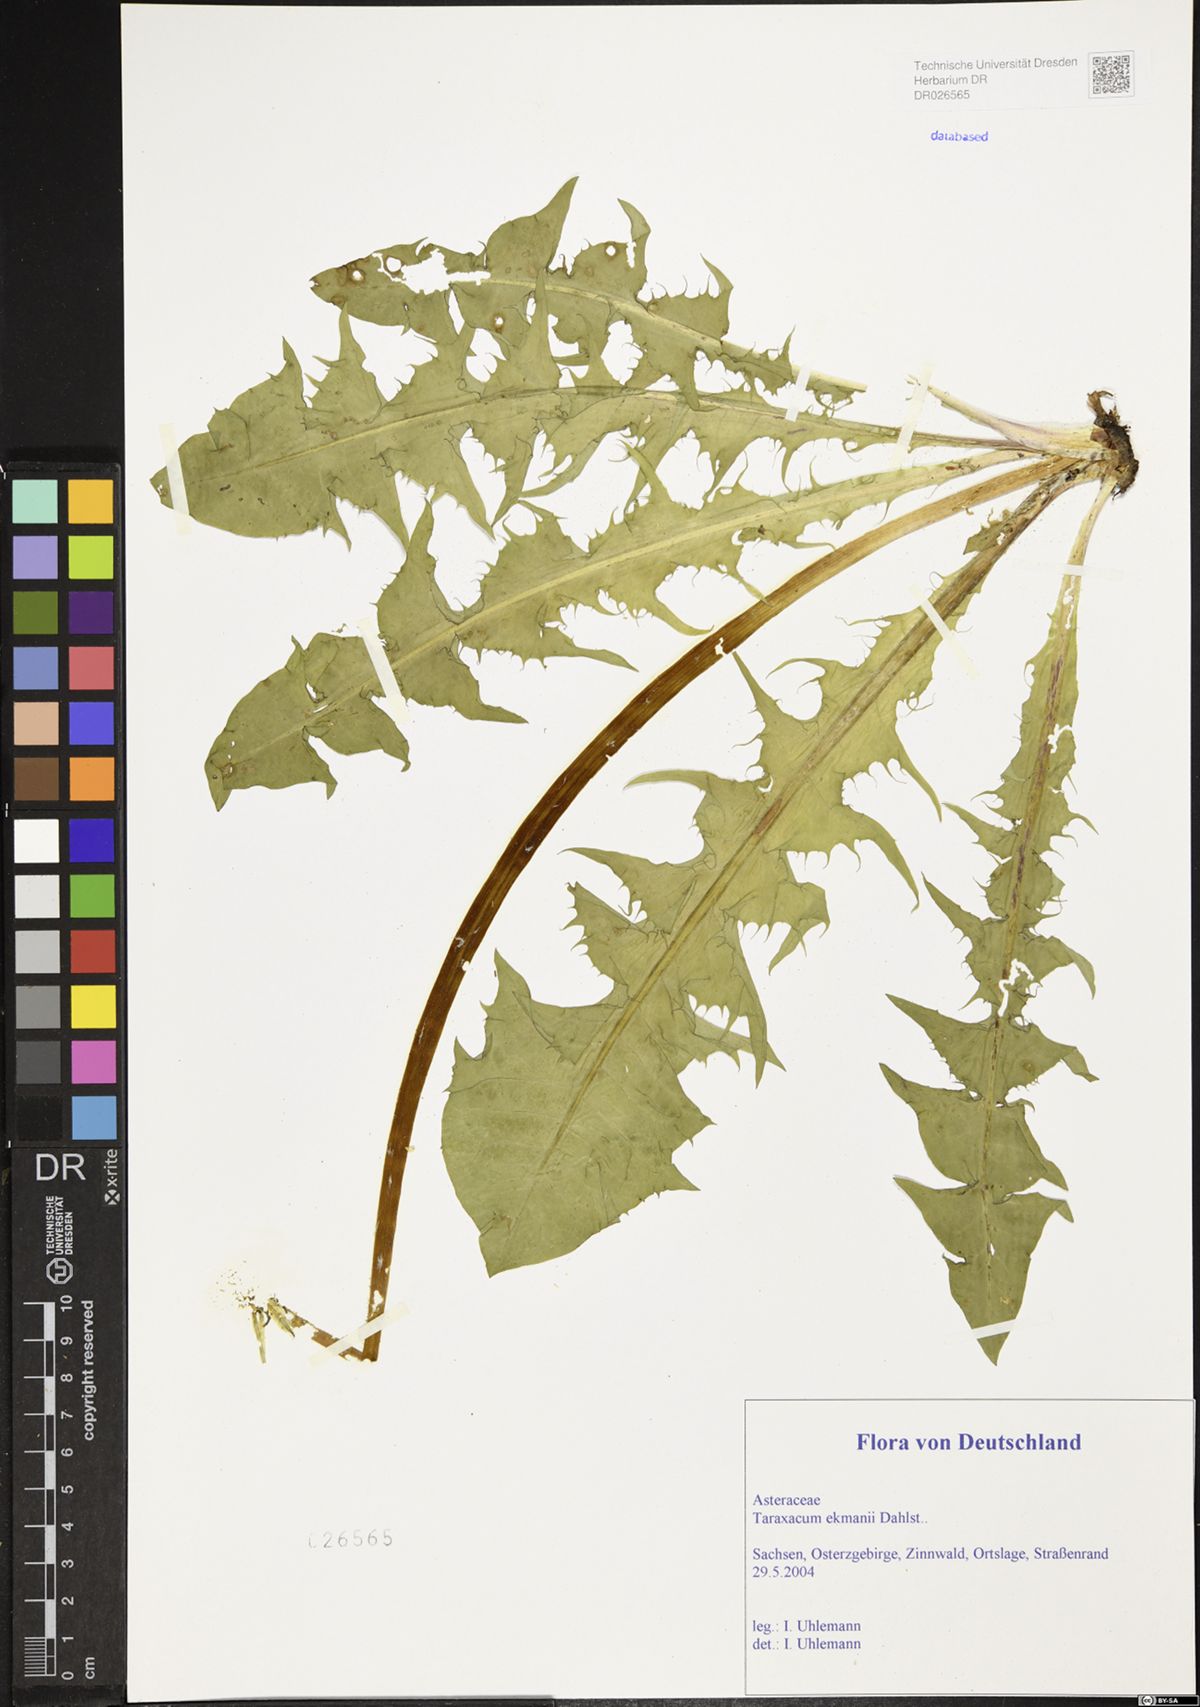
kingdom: Plantae
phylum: Tracheophyta
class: Magnoliopsida
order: Asterales
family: Asteraceae
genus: Taraxacum
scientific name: Taraxacum ekmanii
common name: Ekman's dandelion
